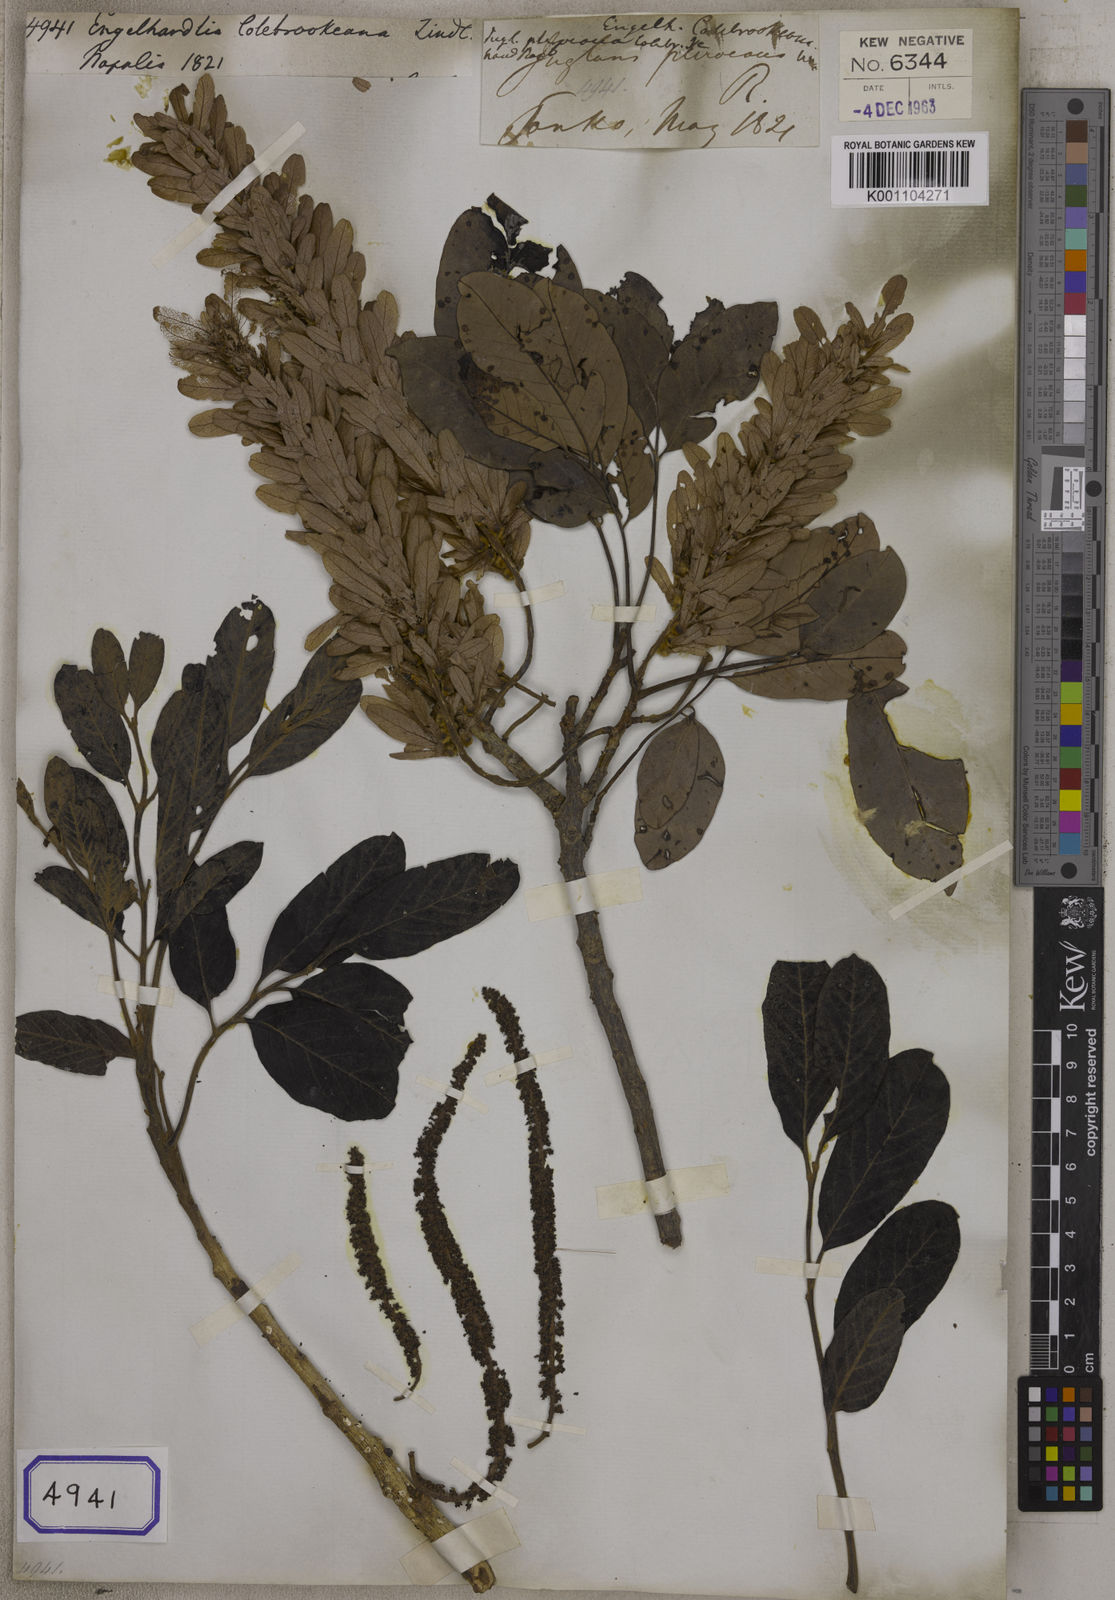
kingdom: Plantae
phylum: Tracheophyta
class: Magnoliopsida
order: Fagales
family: Juglandaceae
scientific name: Juglandaceae
